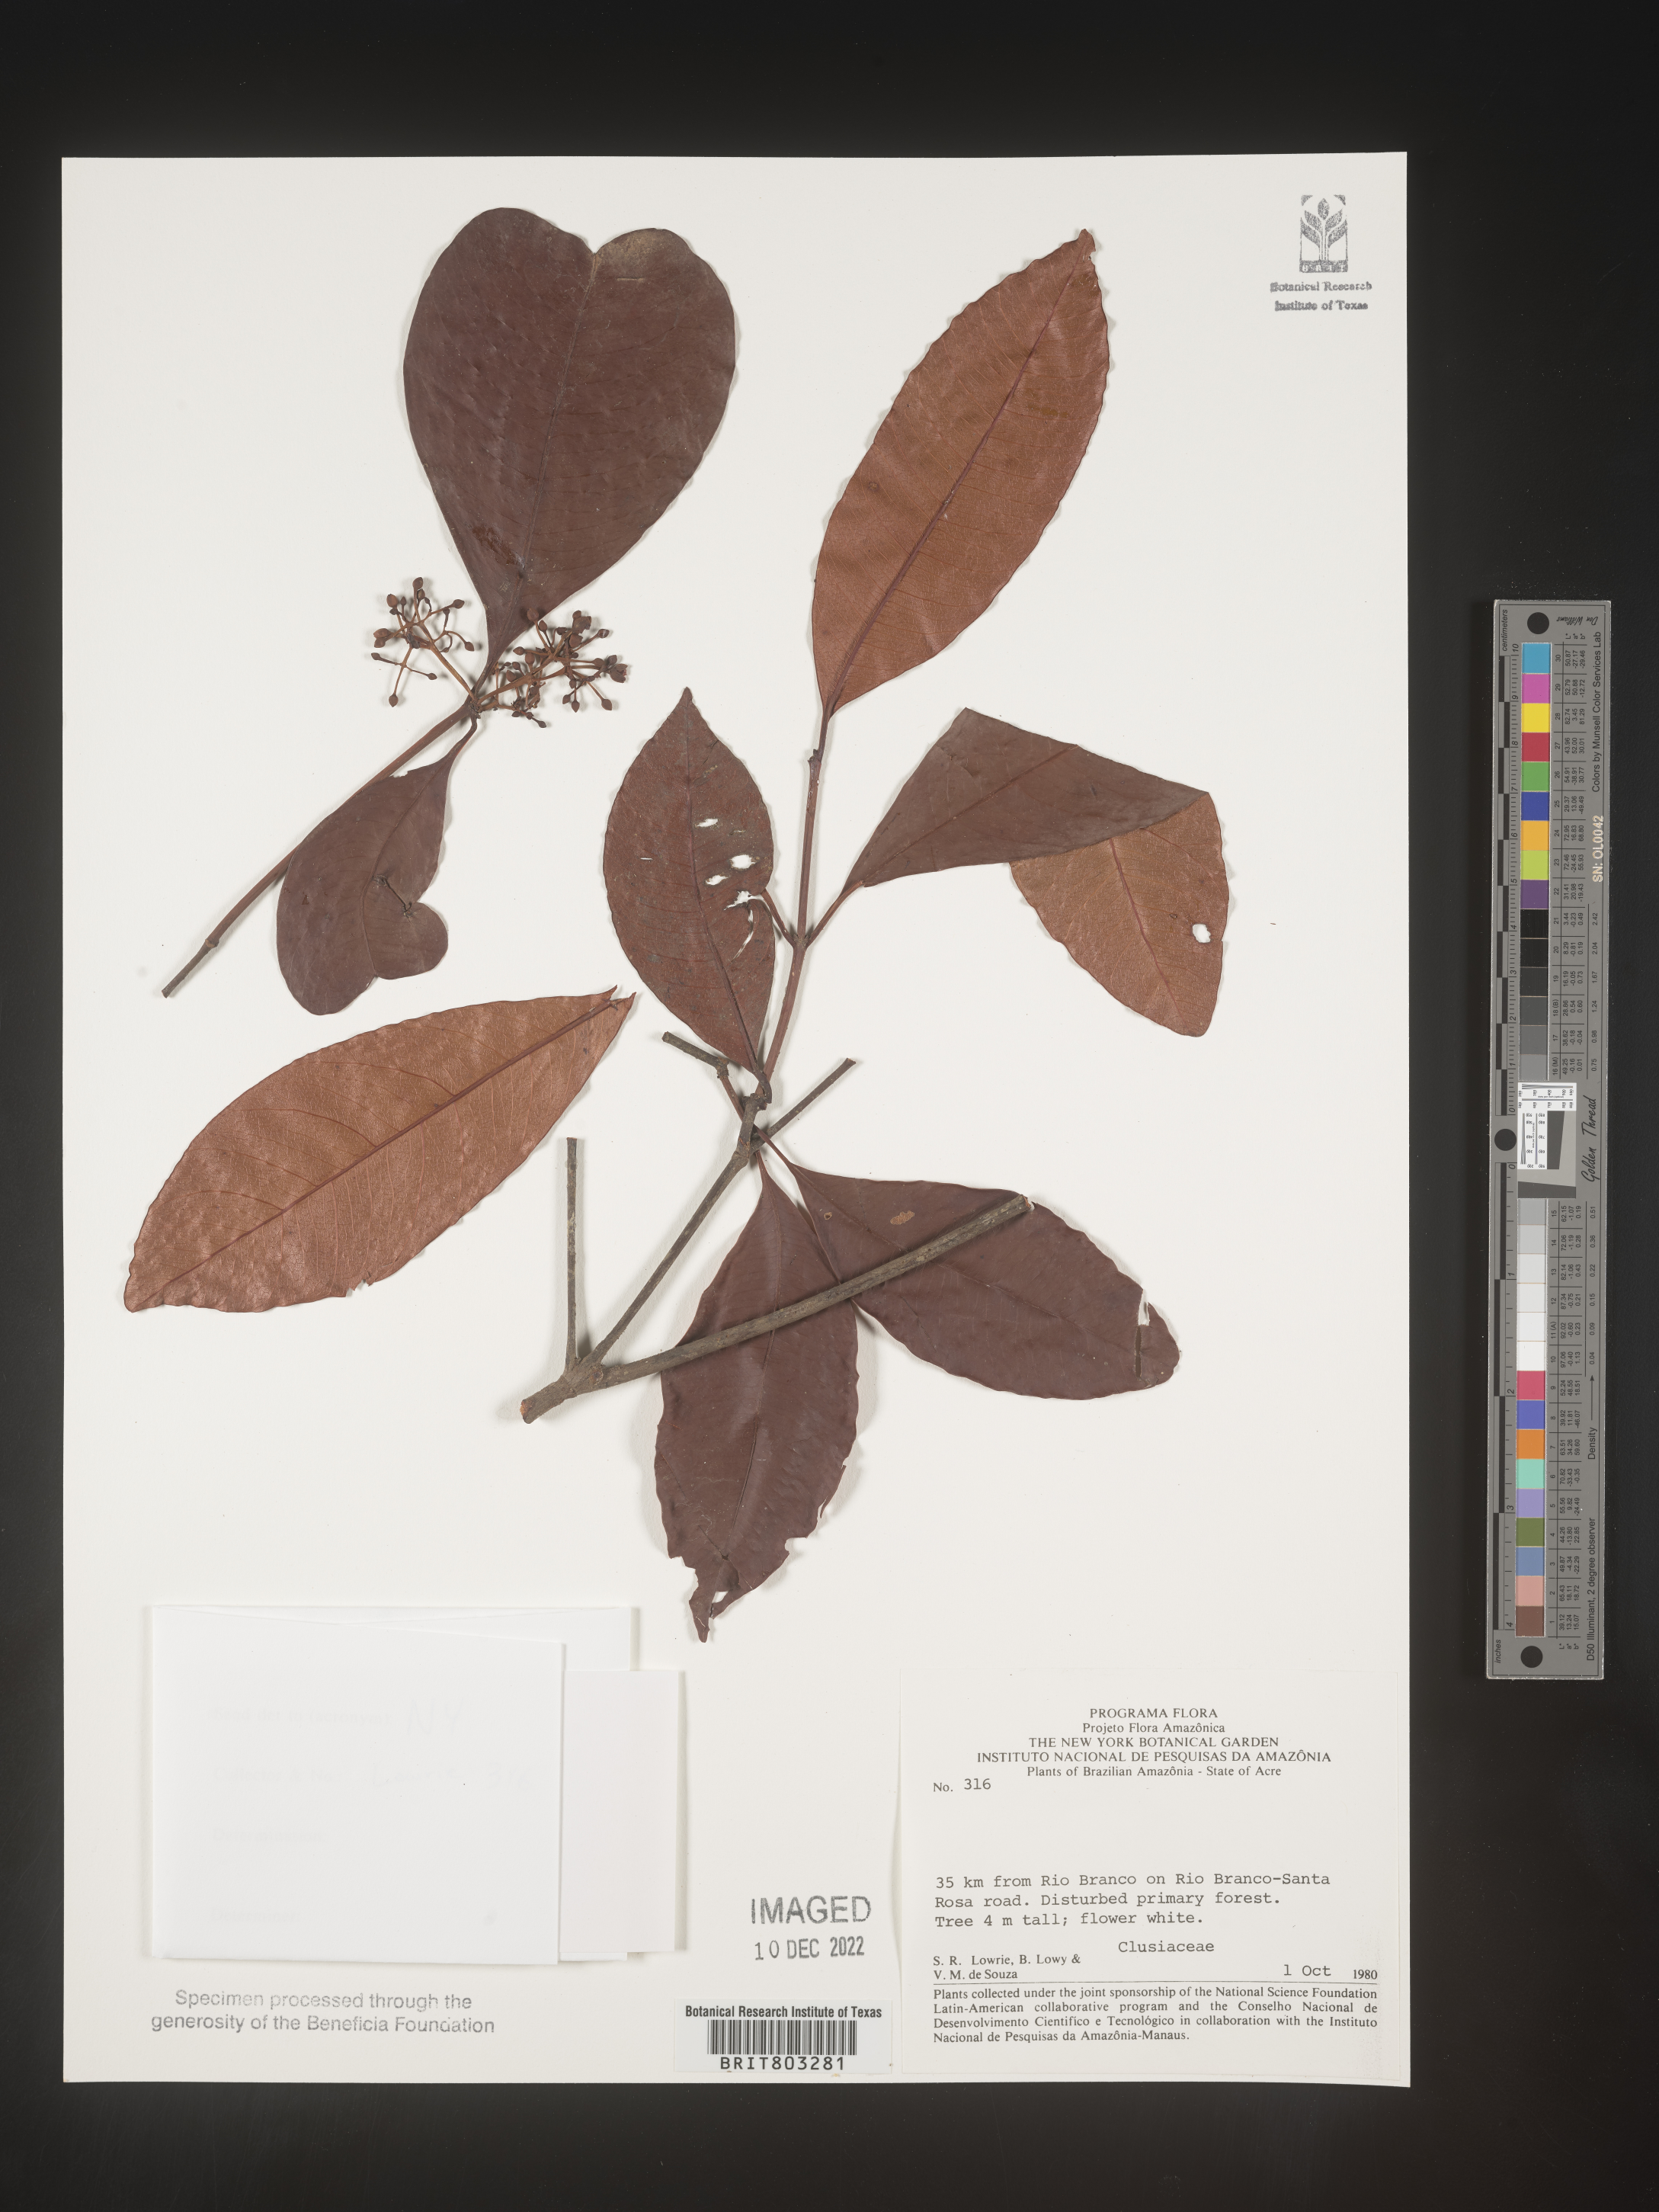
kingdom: Plantae
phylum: Tracheophyta
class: Magnoliopsida
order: Malpighiales
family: Clusiaceae
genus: Tovomita
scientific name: Tovomita
